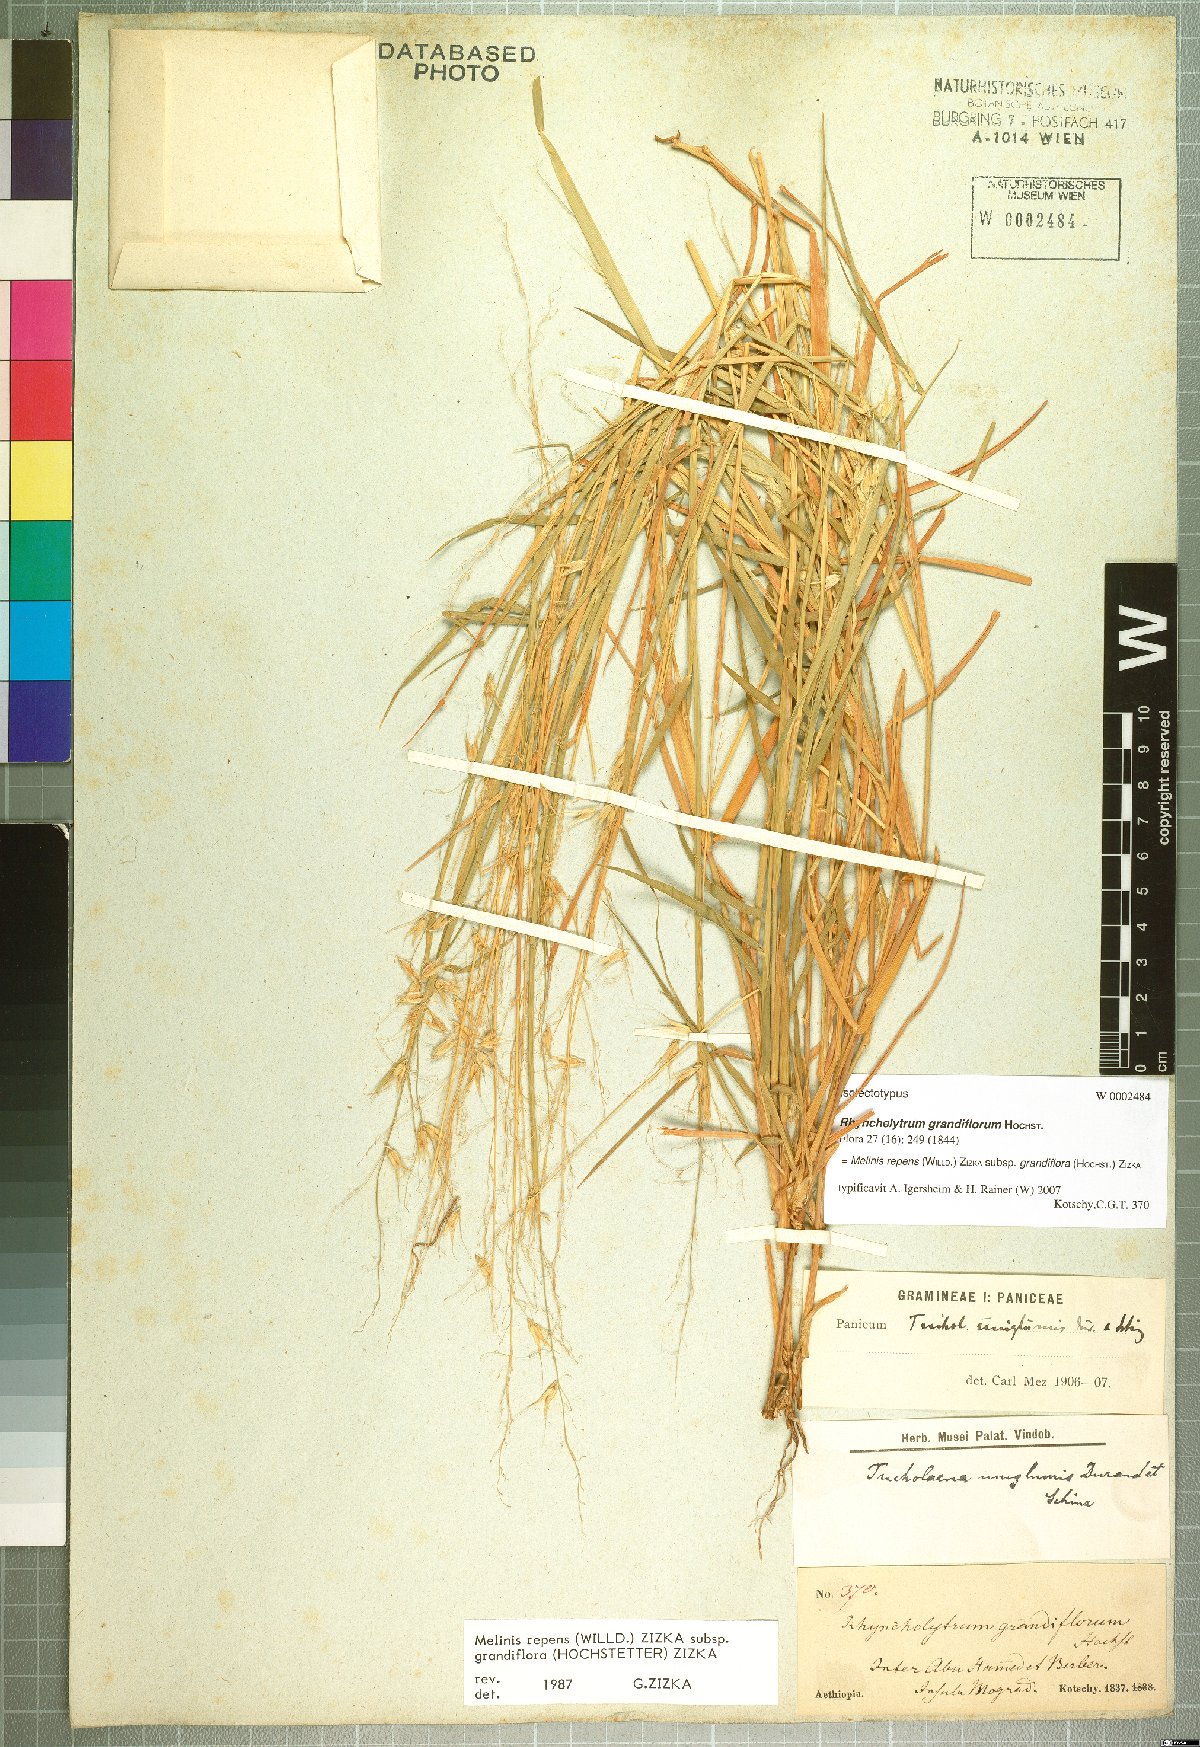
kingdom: Plantae
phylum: Tracheophyta
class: Liliopsida
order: Poales
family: Poaceae
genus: Melinis
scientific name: Melinis repens
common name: Rose natal grass
